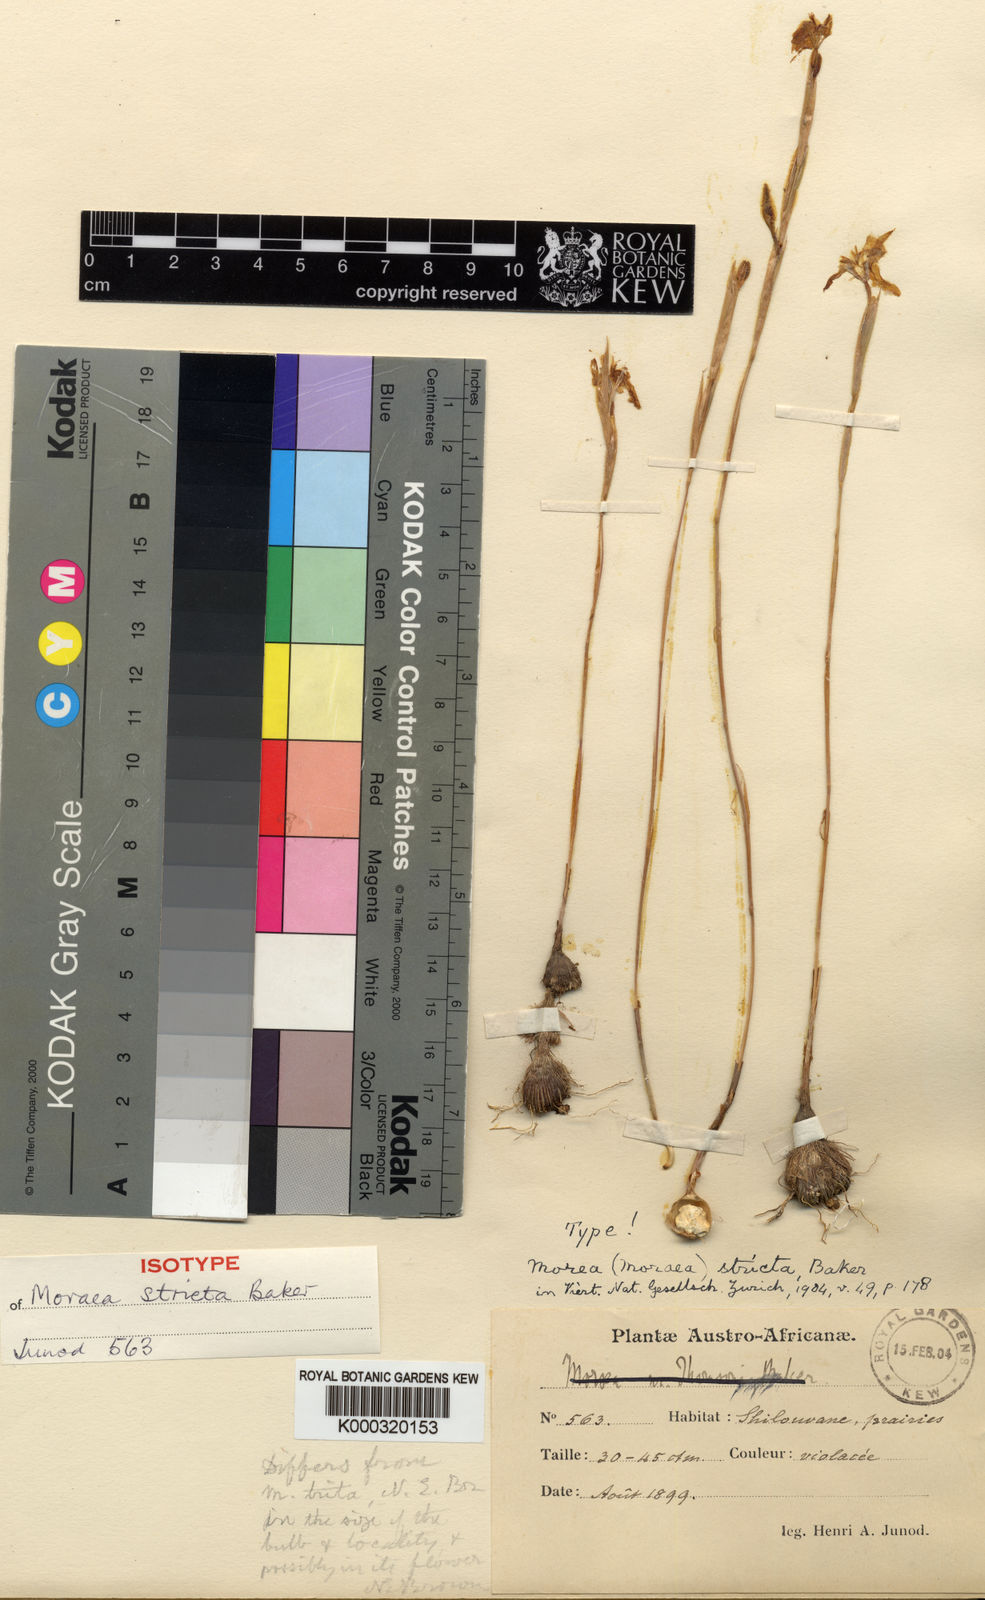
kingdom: Plantae
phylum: Tracheophyta
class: Liliopsida
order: Asparagales
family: Iridaceae
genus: Moraea
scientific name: Moraea stricta
